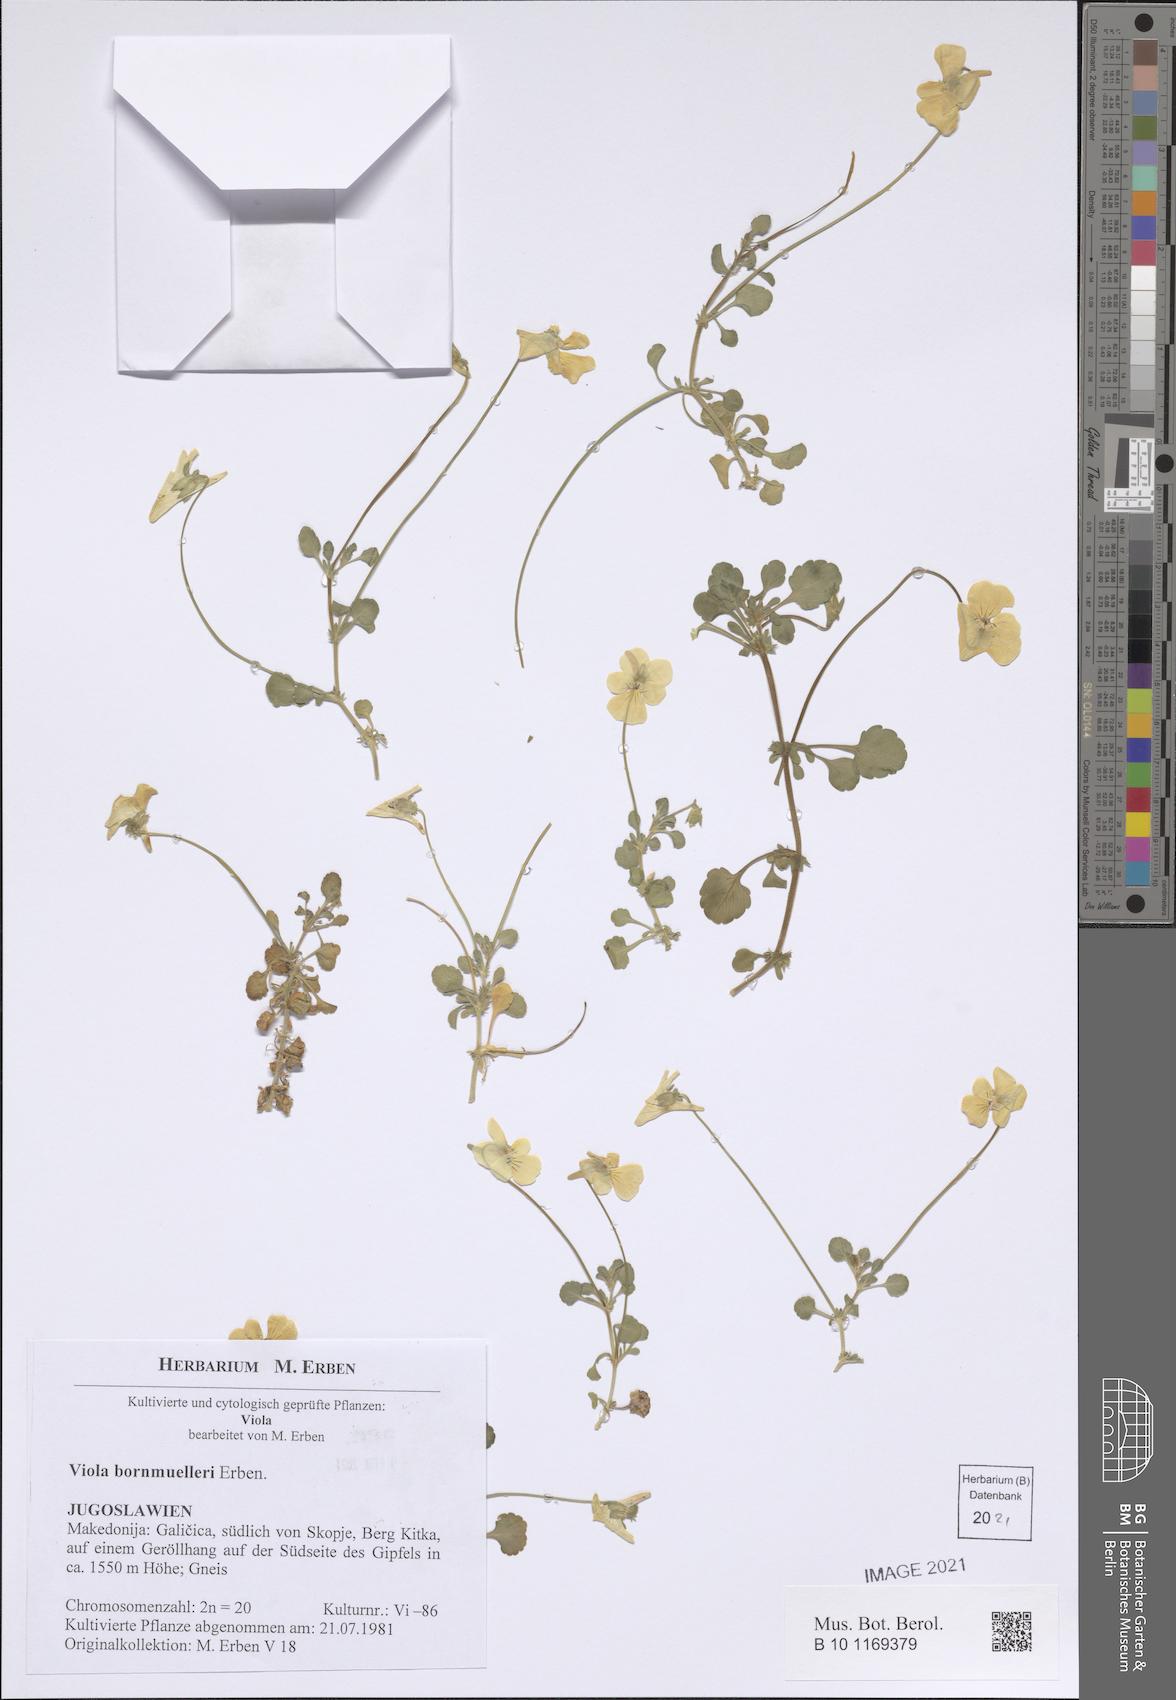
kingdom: Plantae
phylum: Tracheophyta
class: Magnoliopsida
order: Malpighiales
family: Violaceae
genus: Viola
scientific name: Viola bornmuelleri
